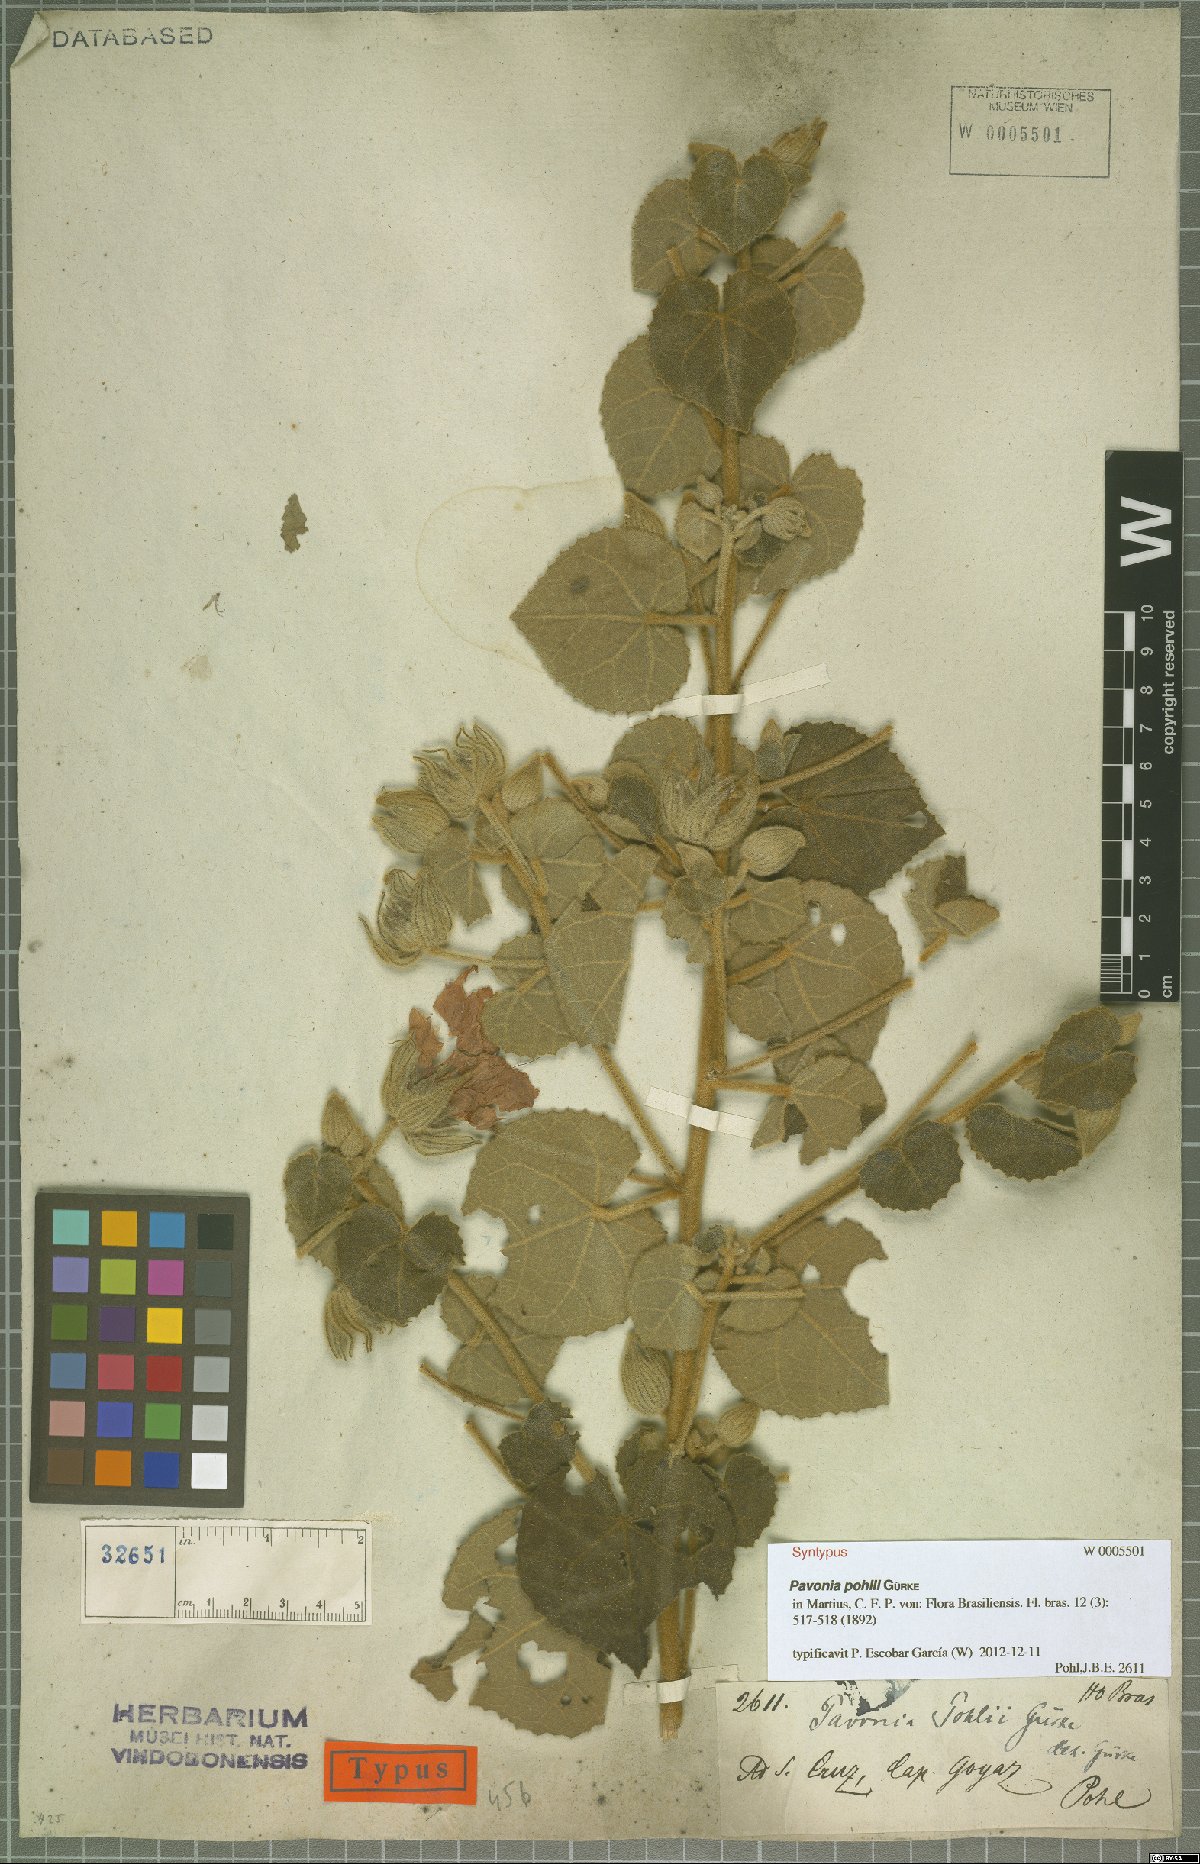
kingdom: Plantae
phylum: Tracheophyta
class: Magnoliopsida
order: Malvales
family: Malvaceae
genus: Pavonia
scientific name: Pavonia pohlii
